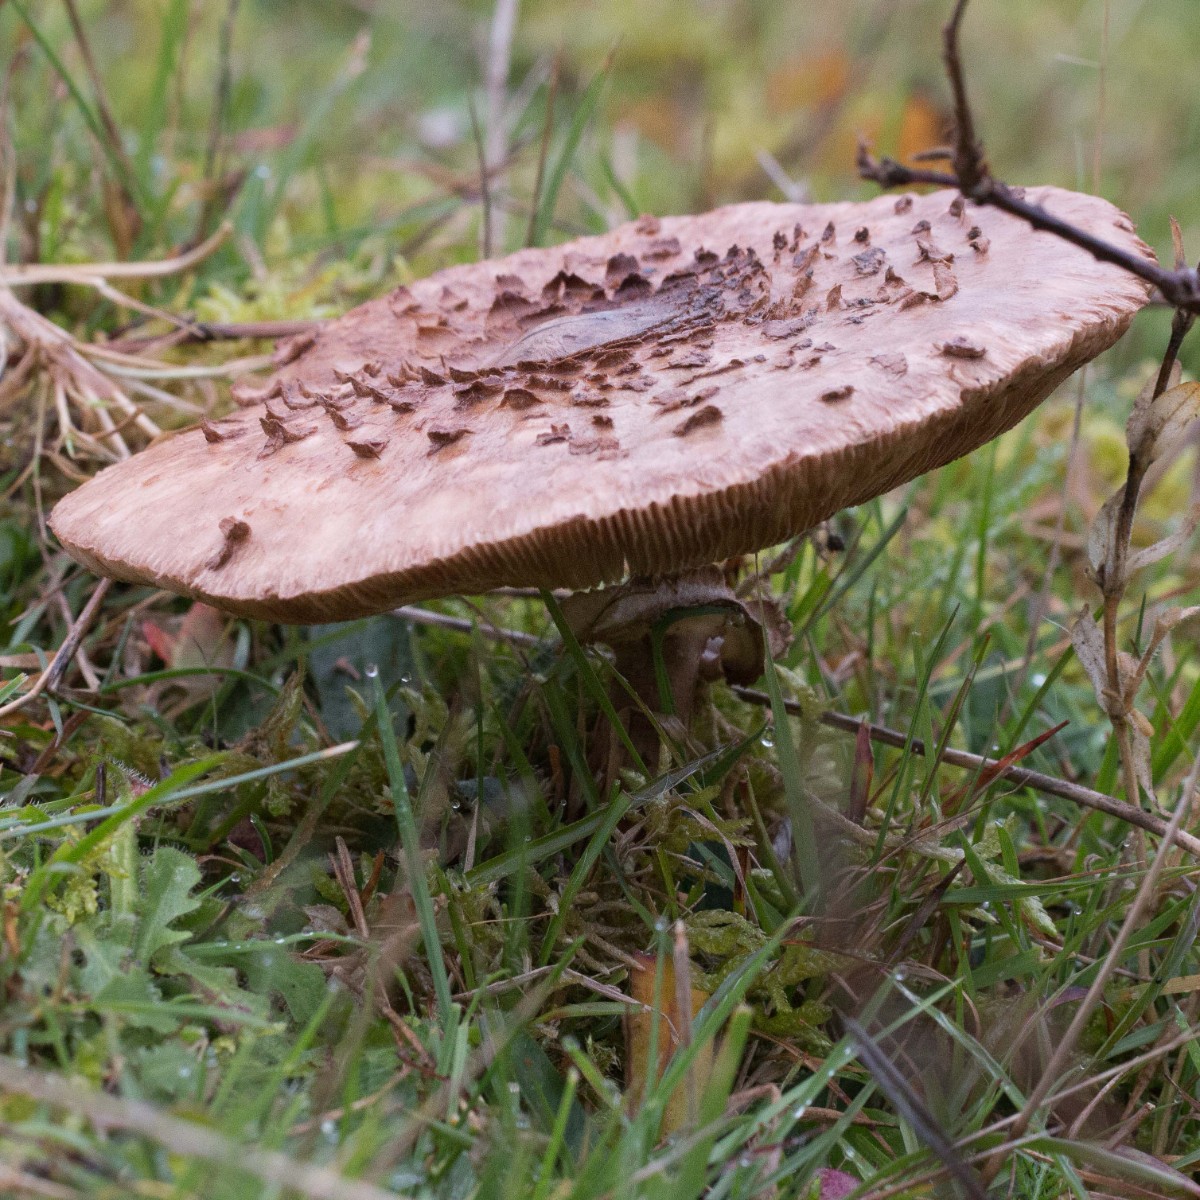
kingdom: Fungi
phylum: Basidiomycota
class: Agaricomycetes
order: Agaricales
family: Agaricaceae
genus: Macrolepiota
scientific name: Macrolepiota procera
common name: stor kæmpeparasolhat
